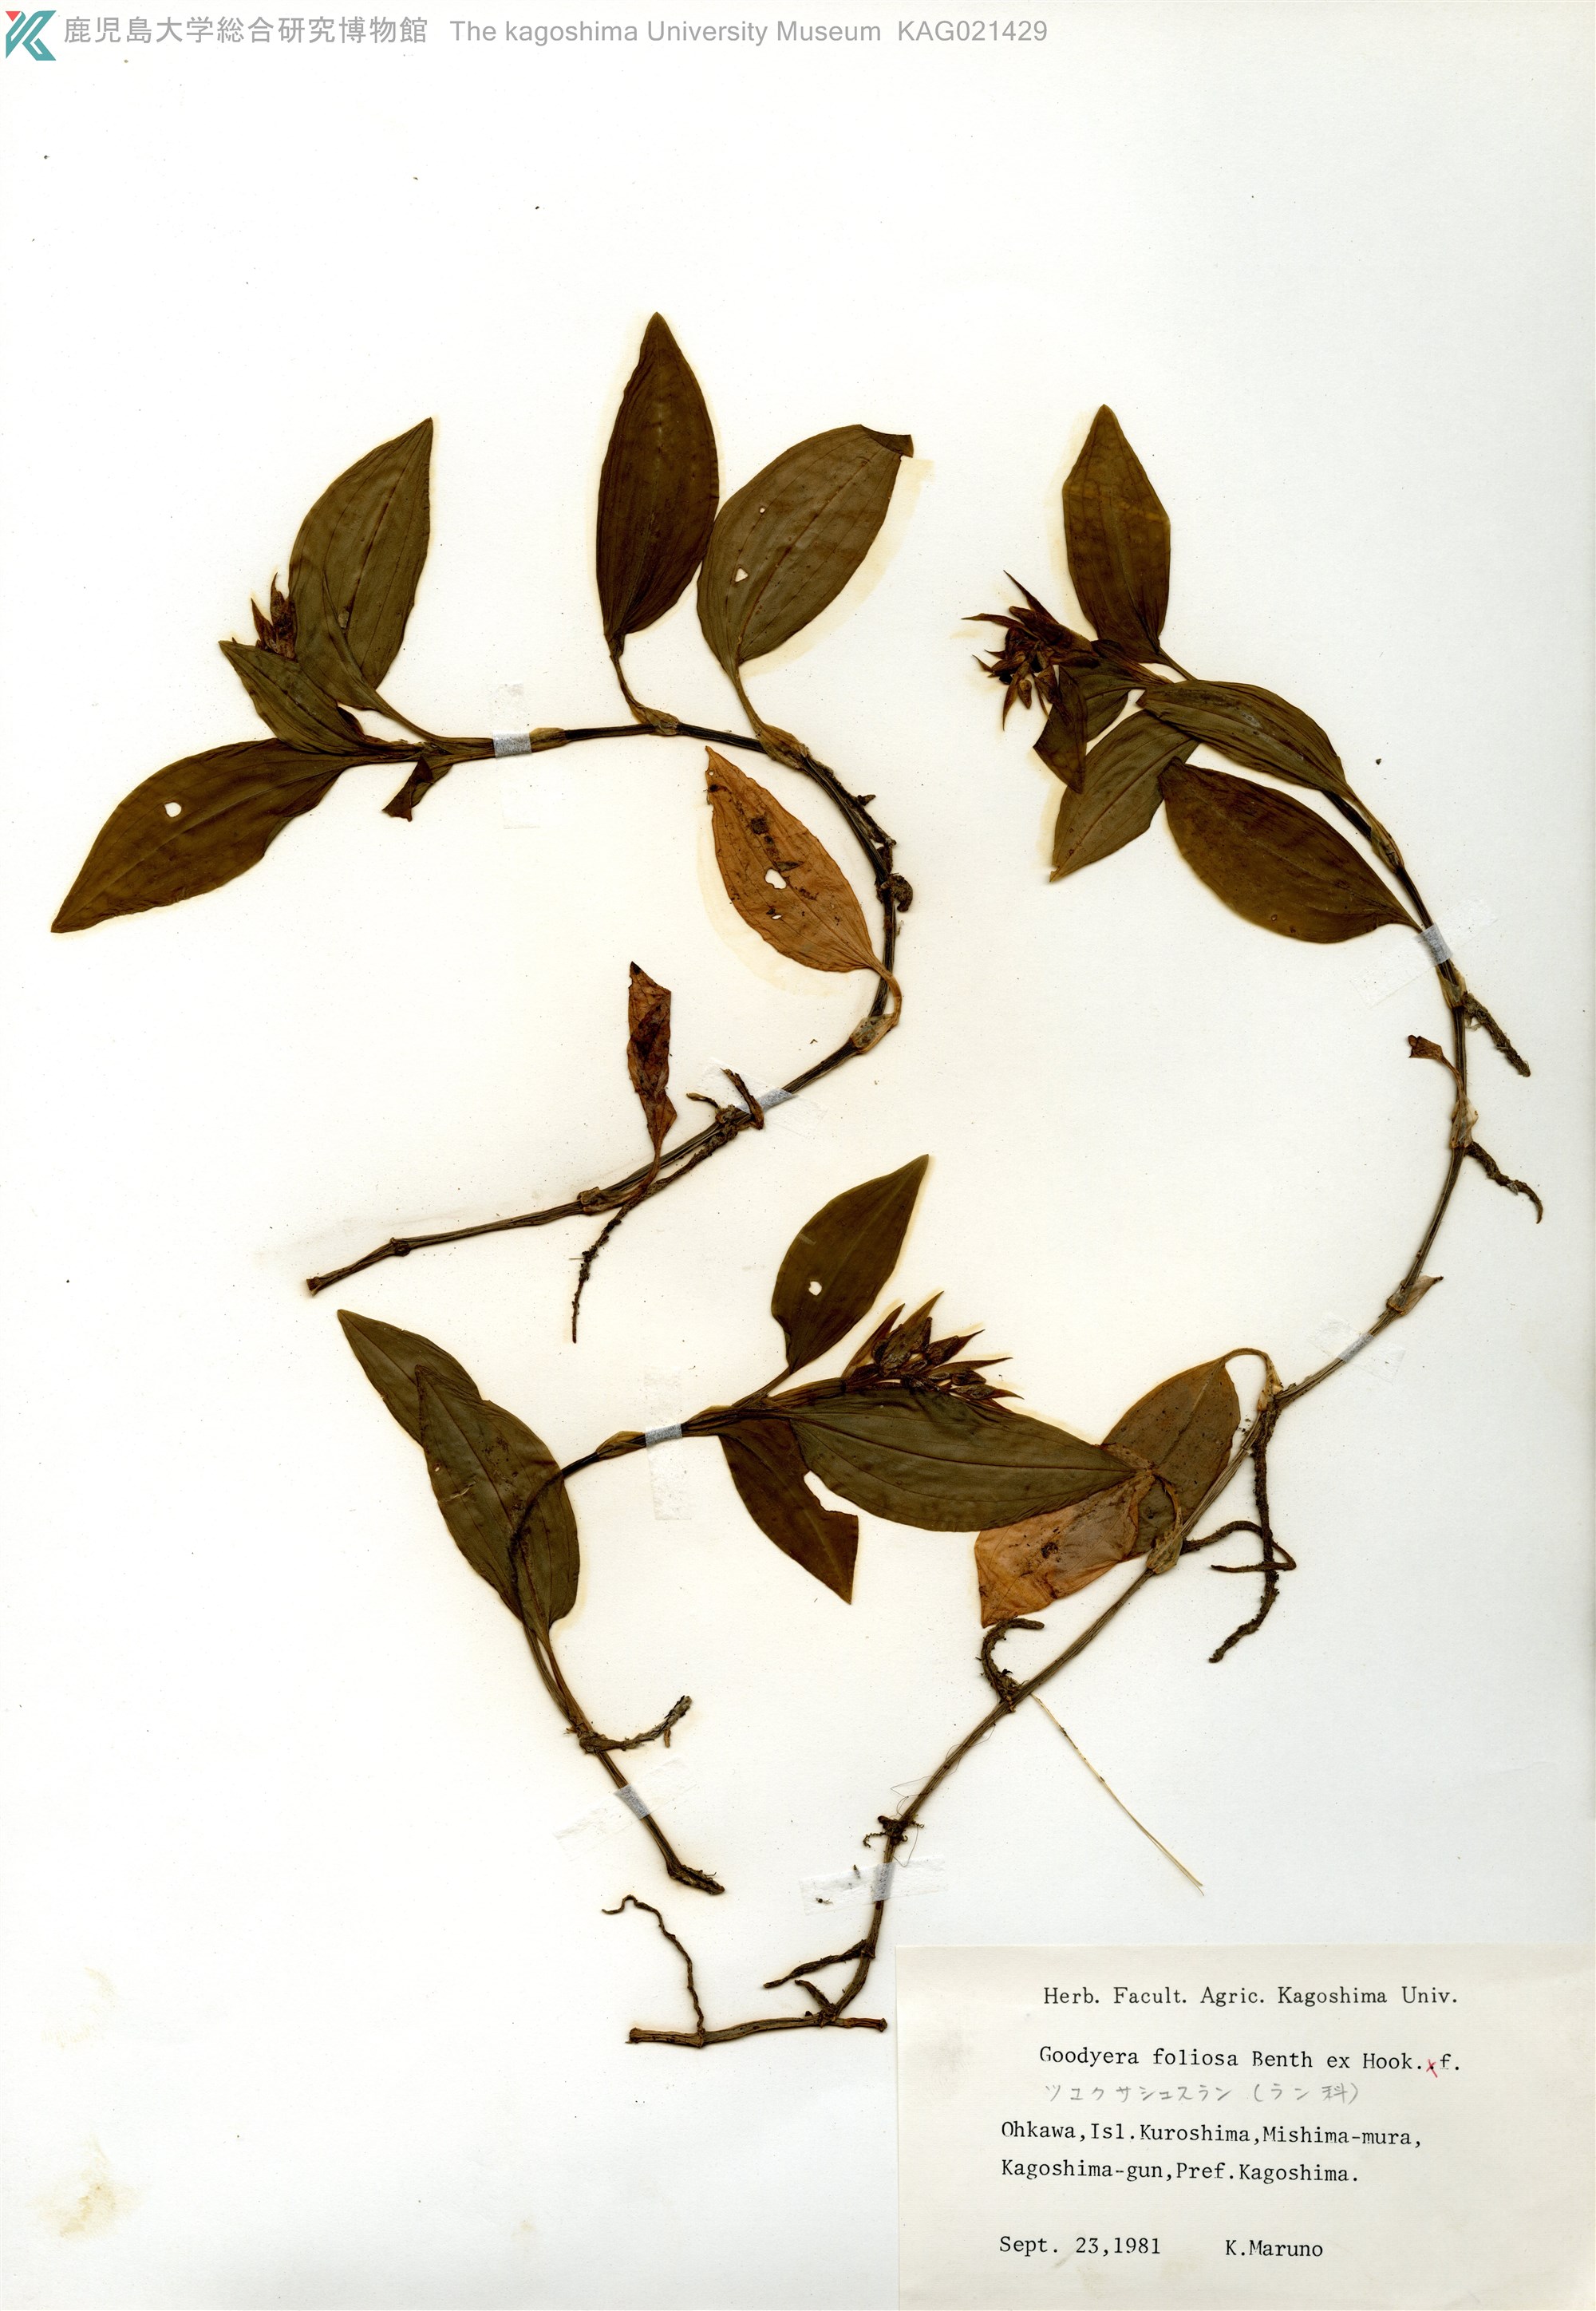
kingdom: Plantae
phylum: Tracheophyta
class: Liliopsida
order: Asparagales
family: Orchidaceae
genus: Goodyera
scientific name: Goodyera foliosa
